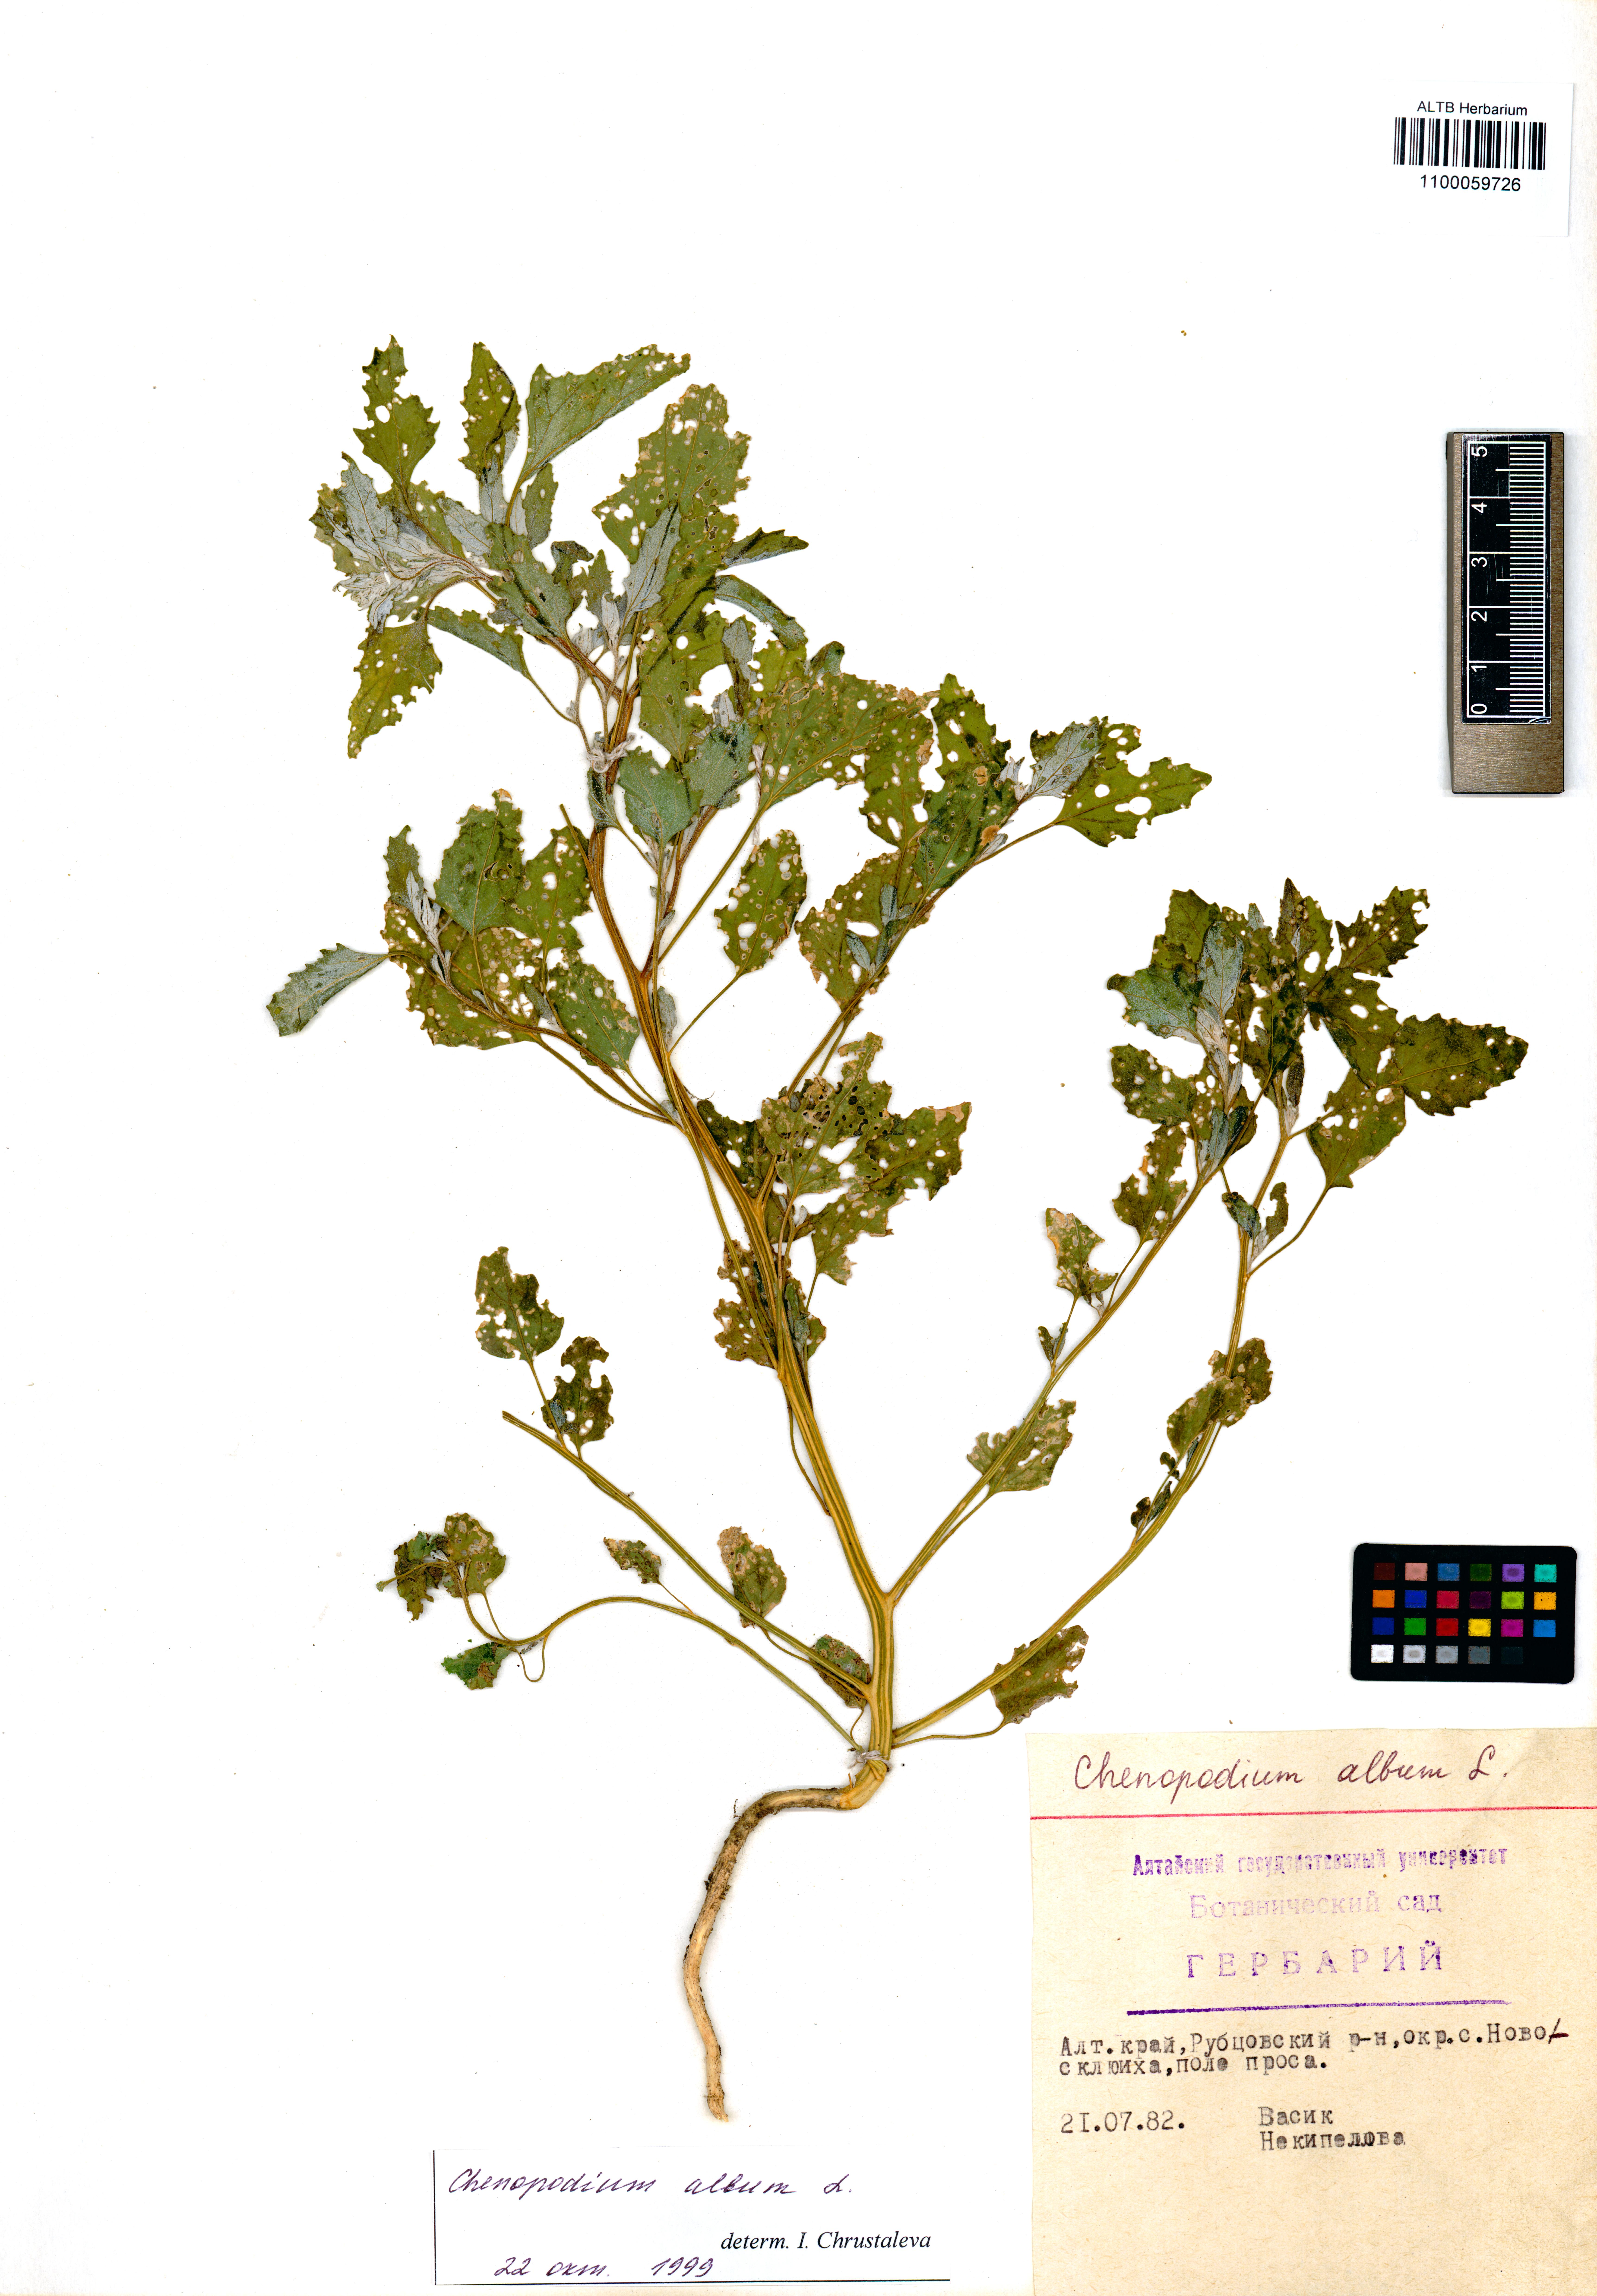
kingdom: Plantae
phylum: Tracheophyta
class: Magnoliopsida
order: Caryophyllales
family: Amaranthaceae
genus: Chenopodium
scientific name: Chenopodium album
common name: Fat-hen
